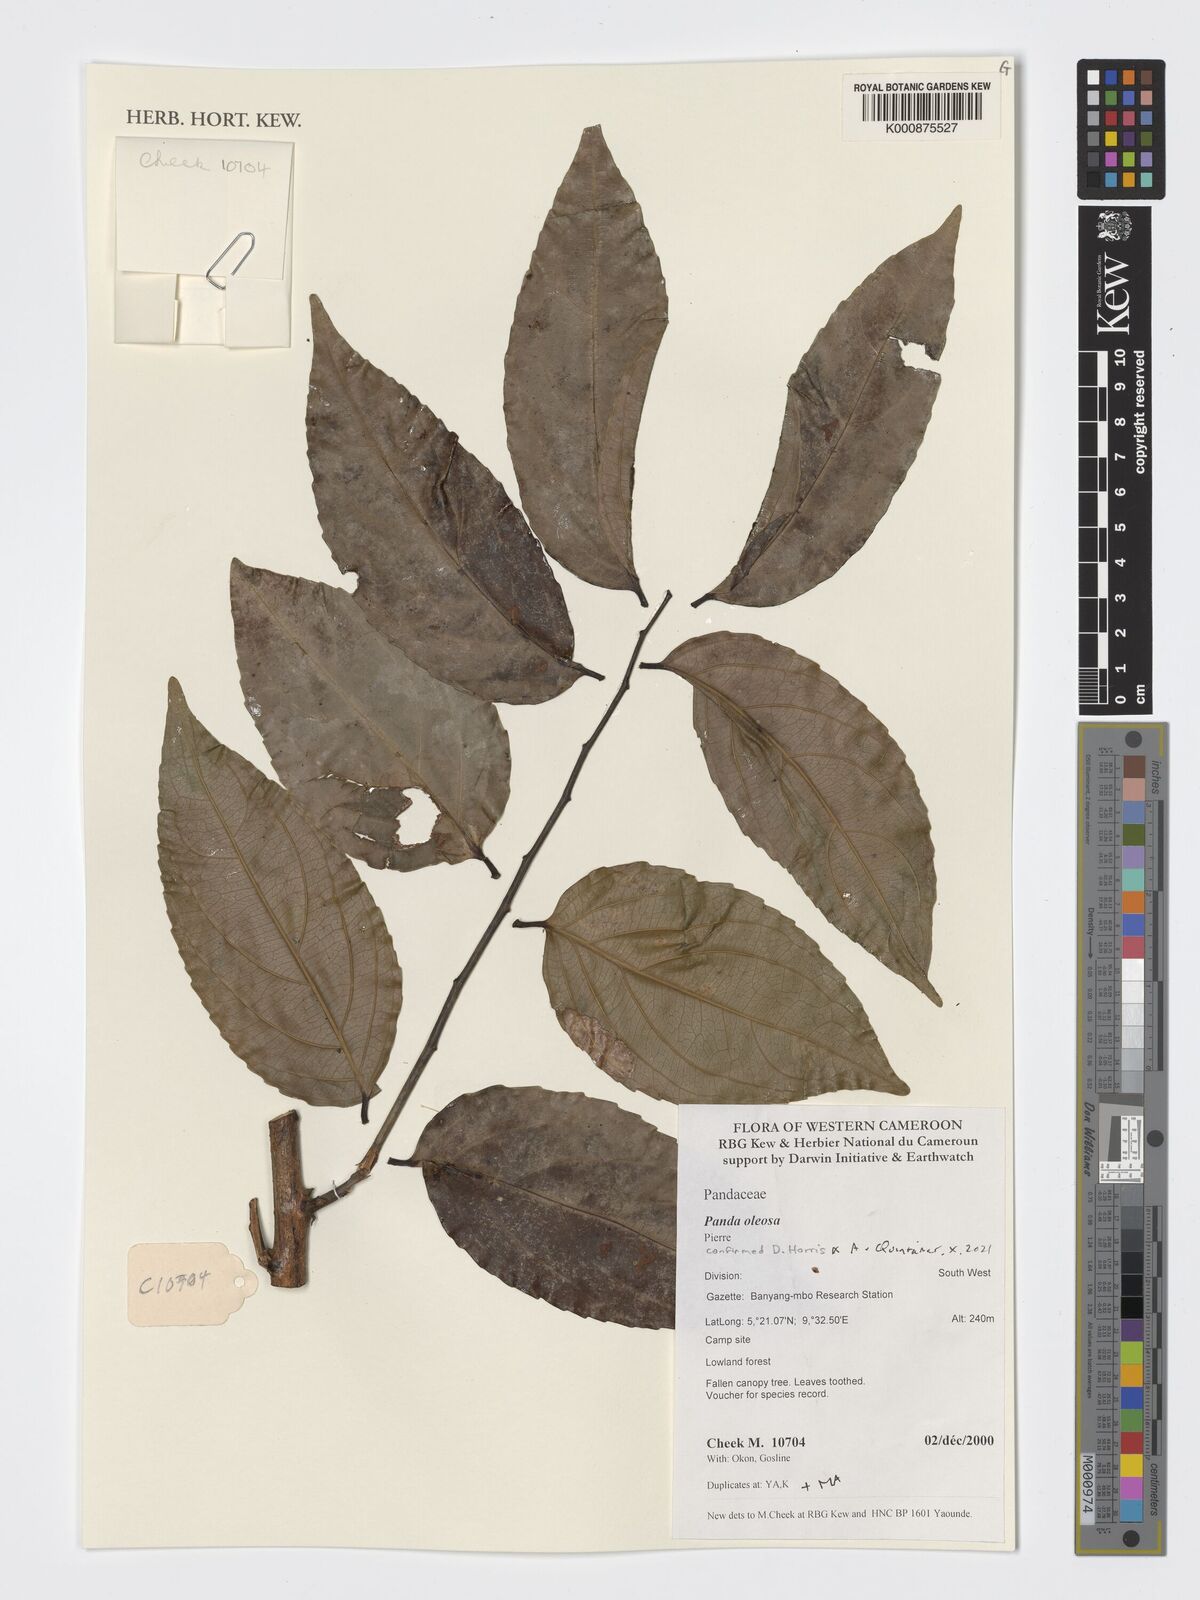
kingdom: Plantae
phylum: Tracheophyta
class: Magnoliopsida
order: Malpighiales
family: Pandaceae
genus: Panda
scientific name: Panda oleosa
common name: Panda
